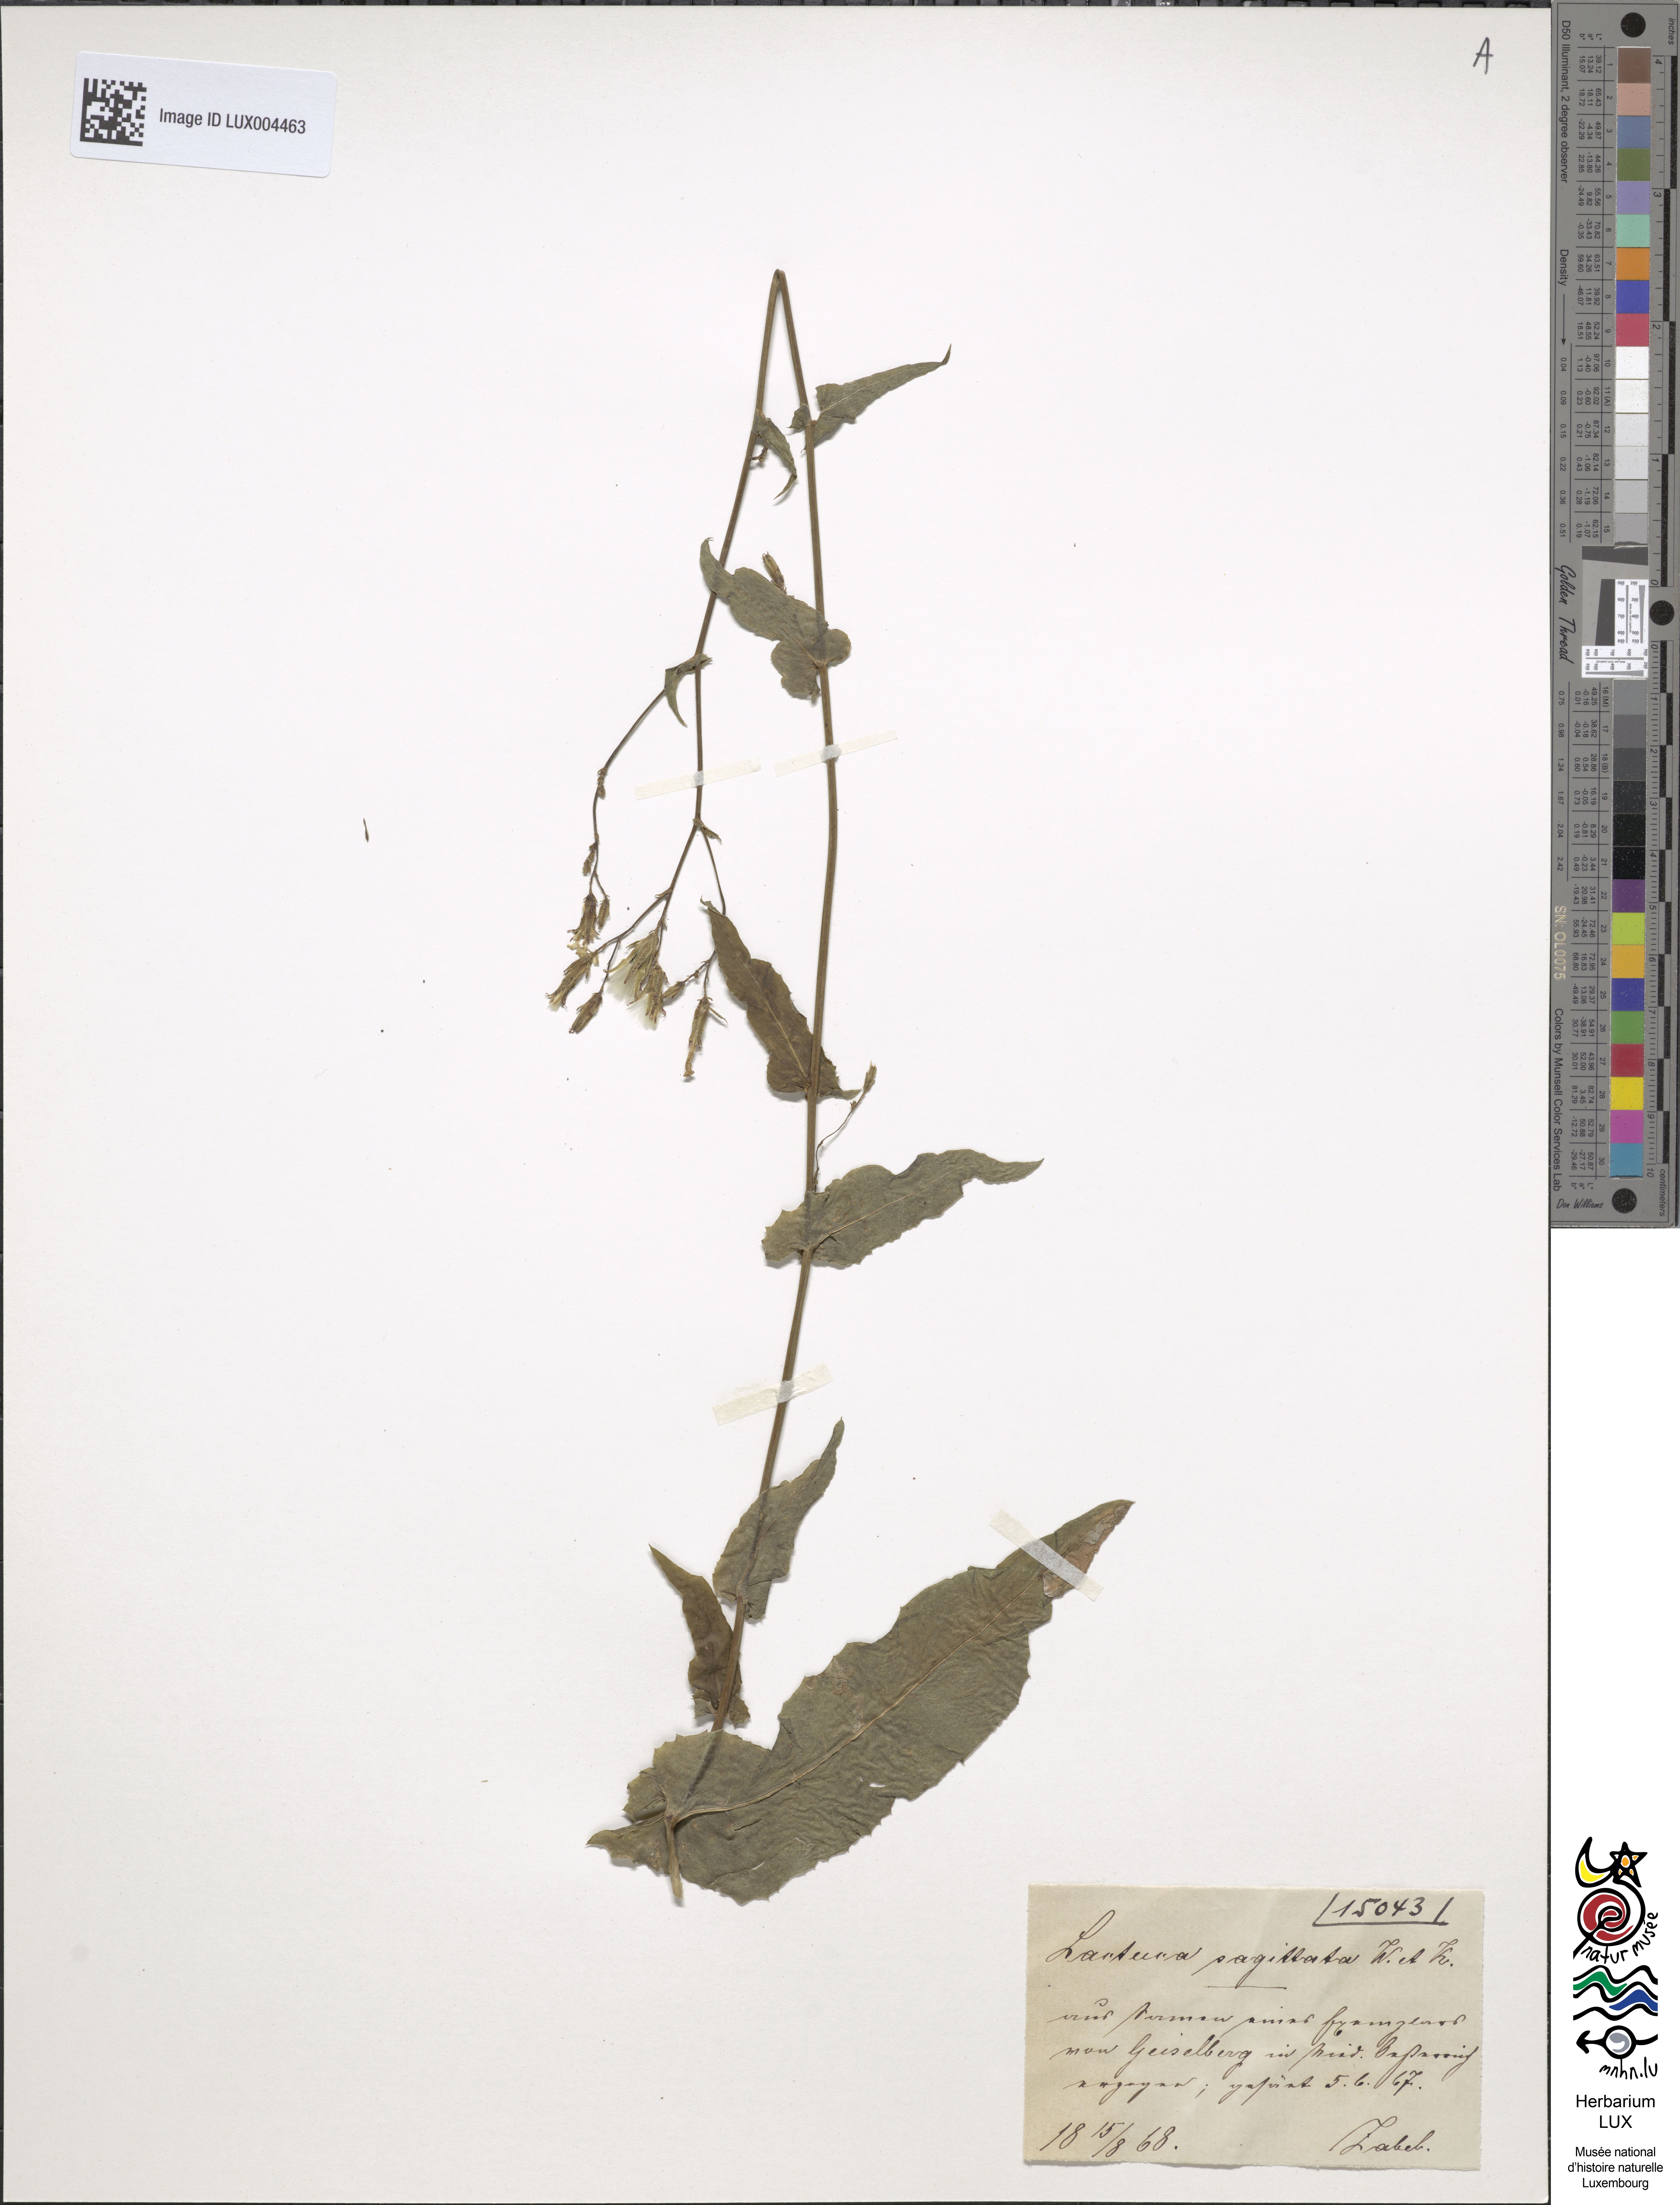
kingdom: Plantae
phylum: Tracheophyta
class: Magnoliopsida
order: Asterales
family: Asteraceae
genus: Lactuca
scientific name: Lactuca quercina
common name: Wild lettuce
